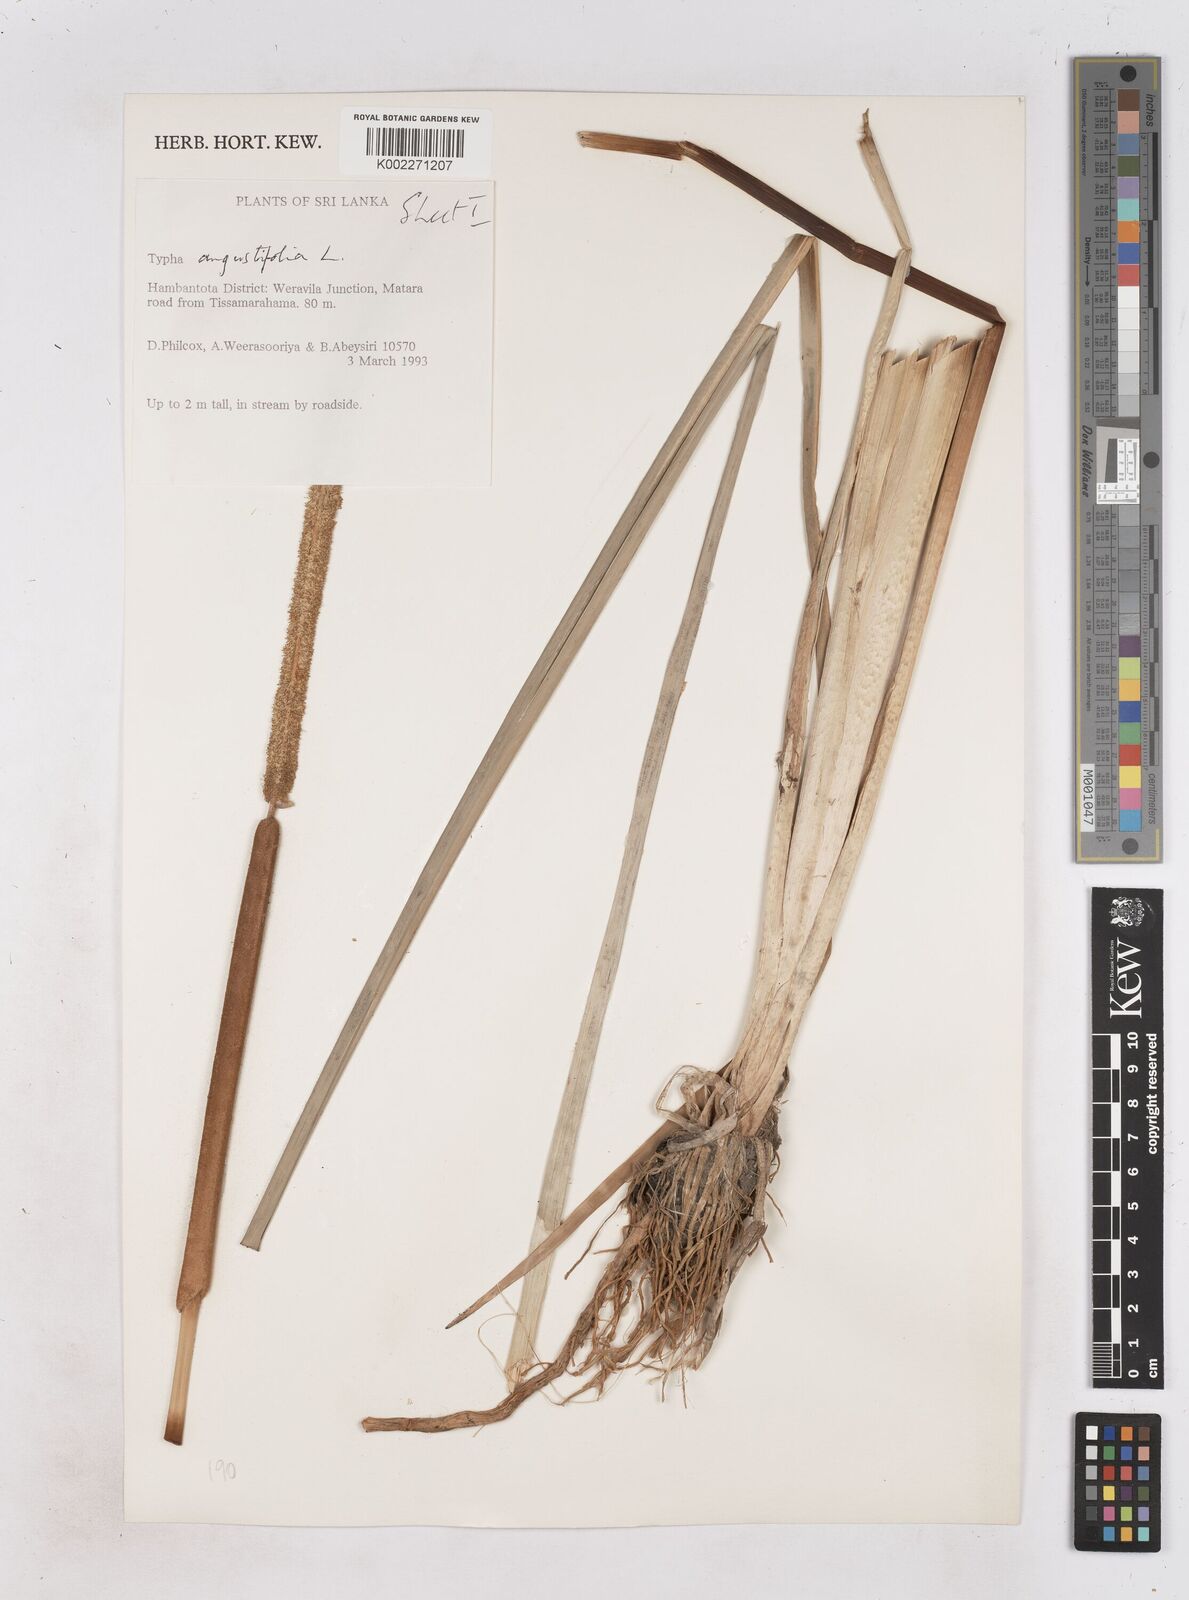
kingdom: Plantae
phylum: Tracheophyta
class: Liliopsida
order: Poales
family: Typhaceae
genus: Typha
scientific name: Typha domingensis
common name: Southern cattail
